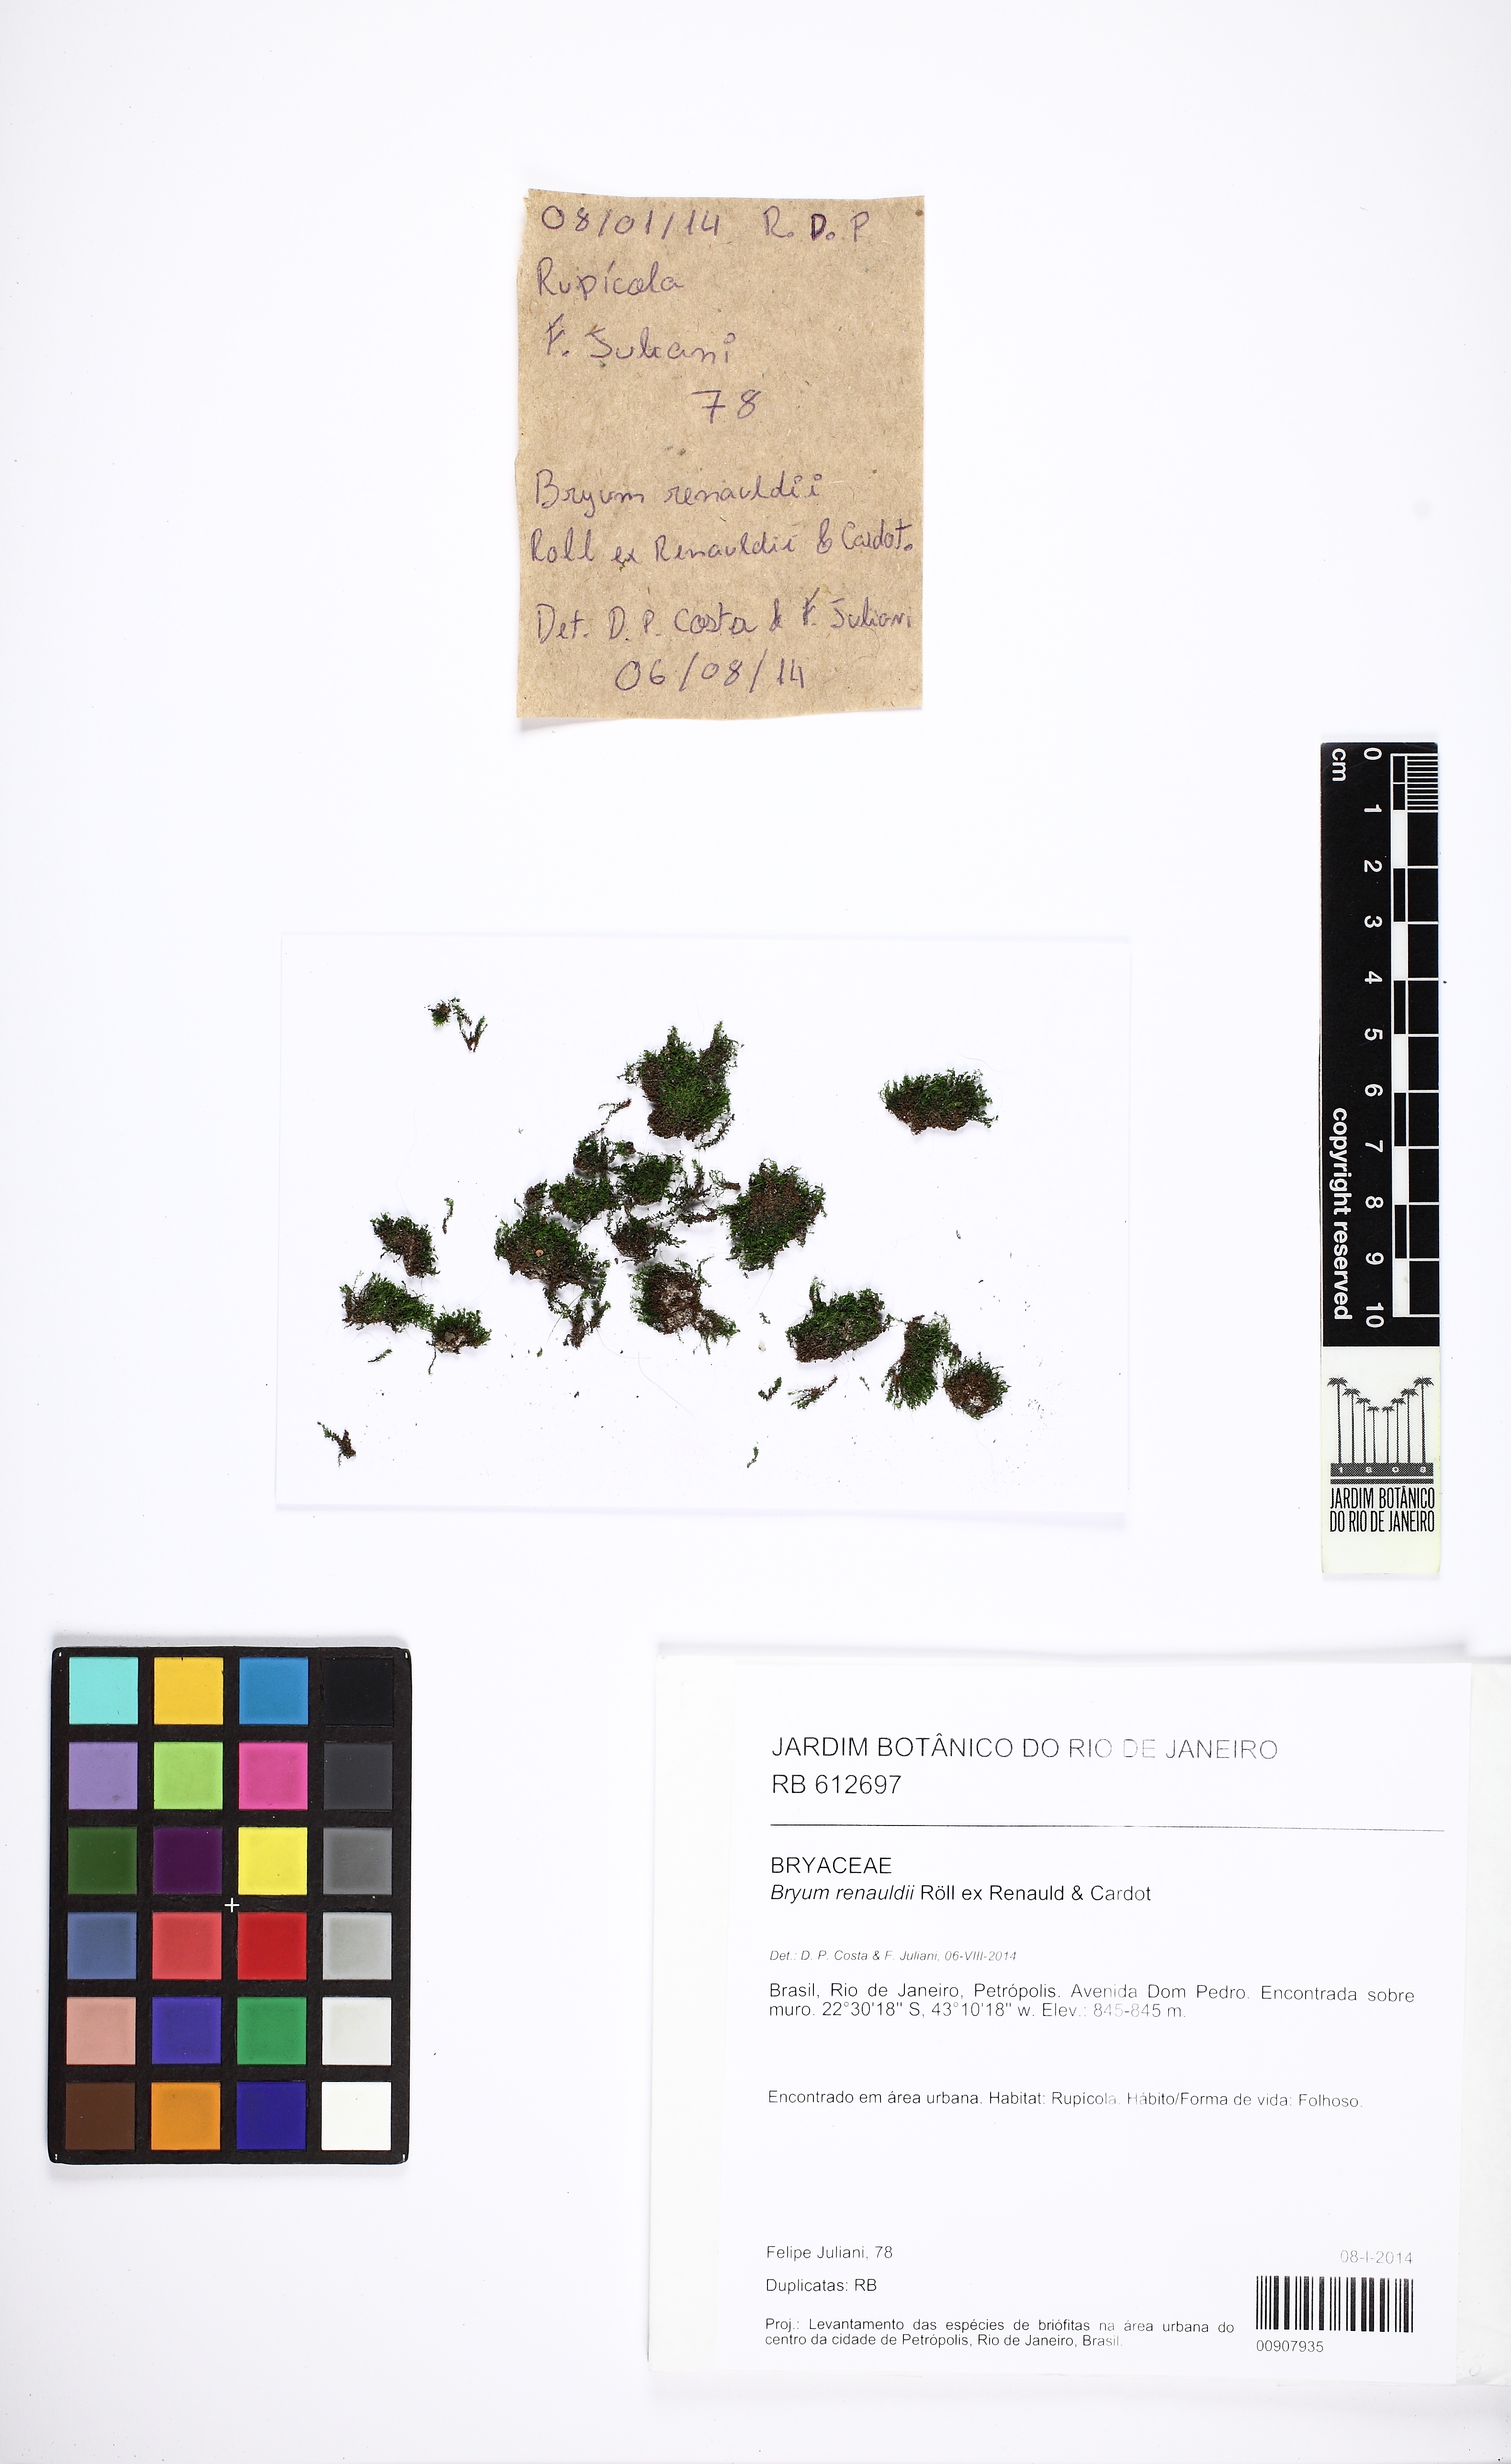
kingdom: Plantae
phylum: Bryophyta
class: Bryopsida
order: Bryales
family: Bryaceae
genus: Bryum
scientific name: Bryum renauldii
